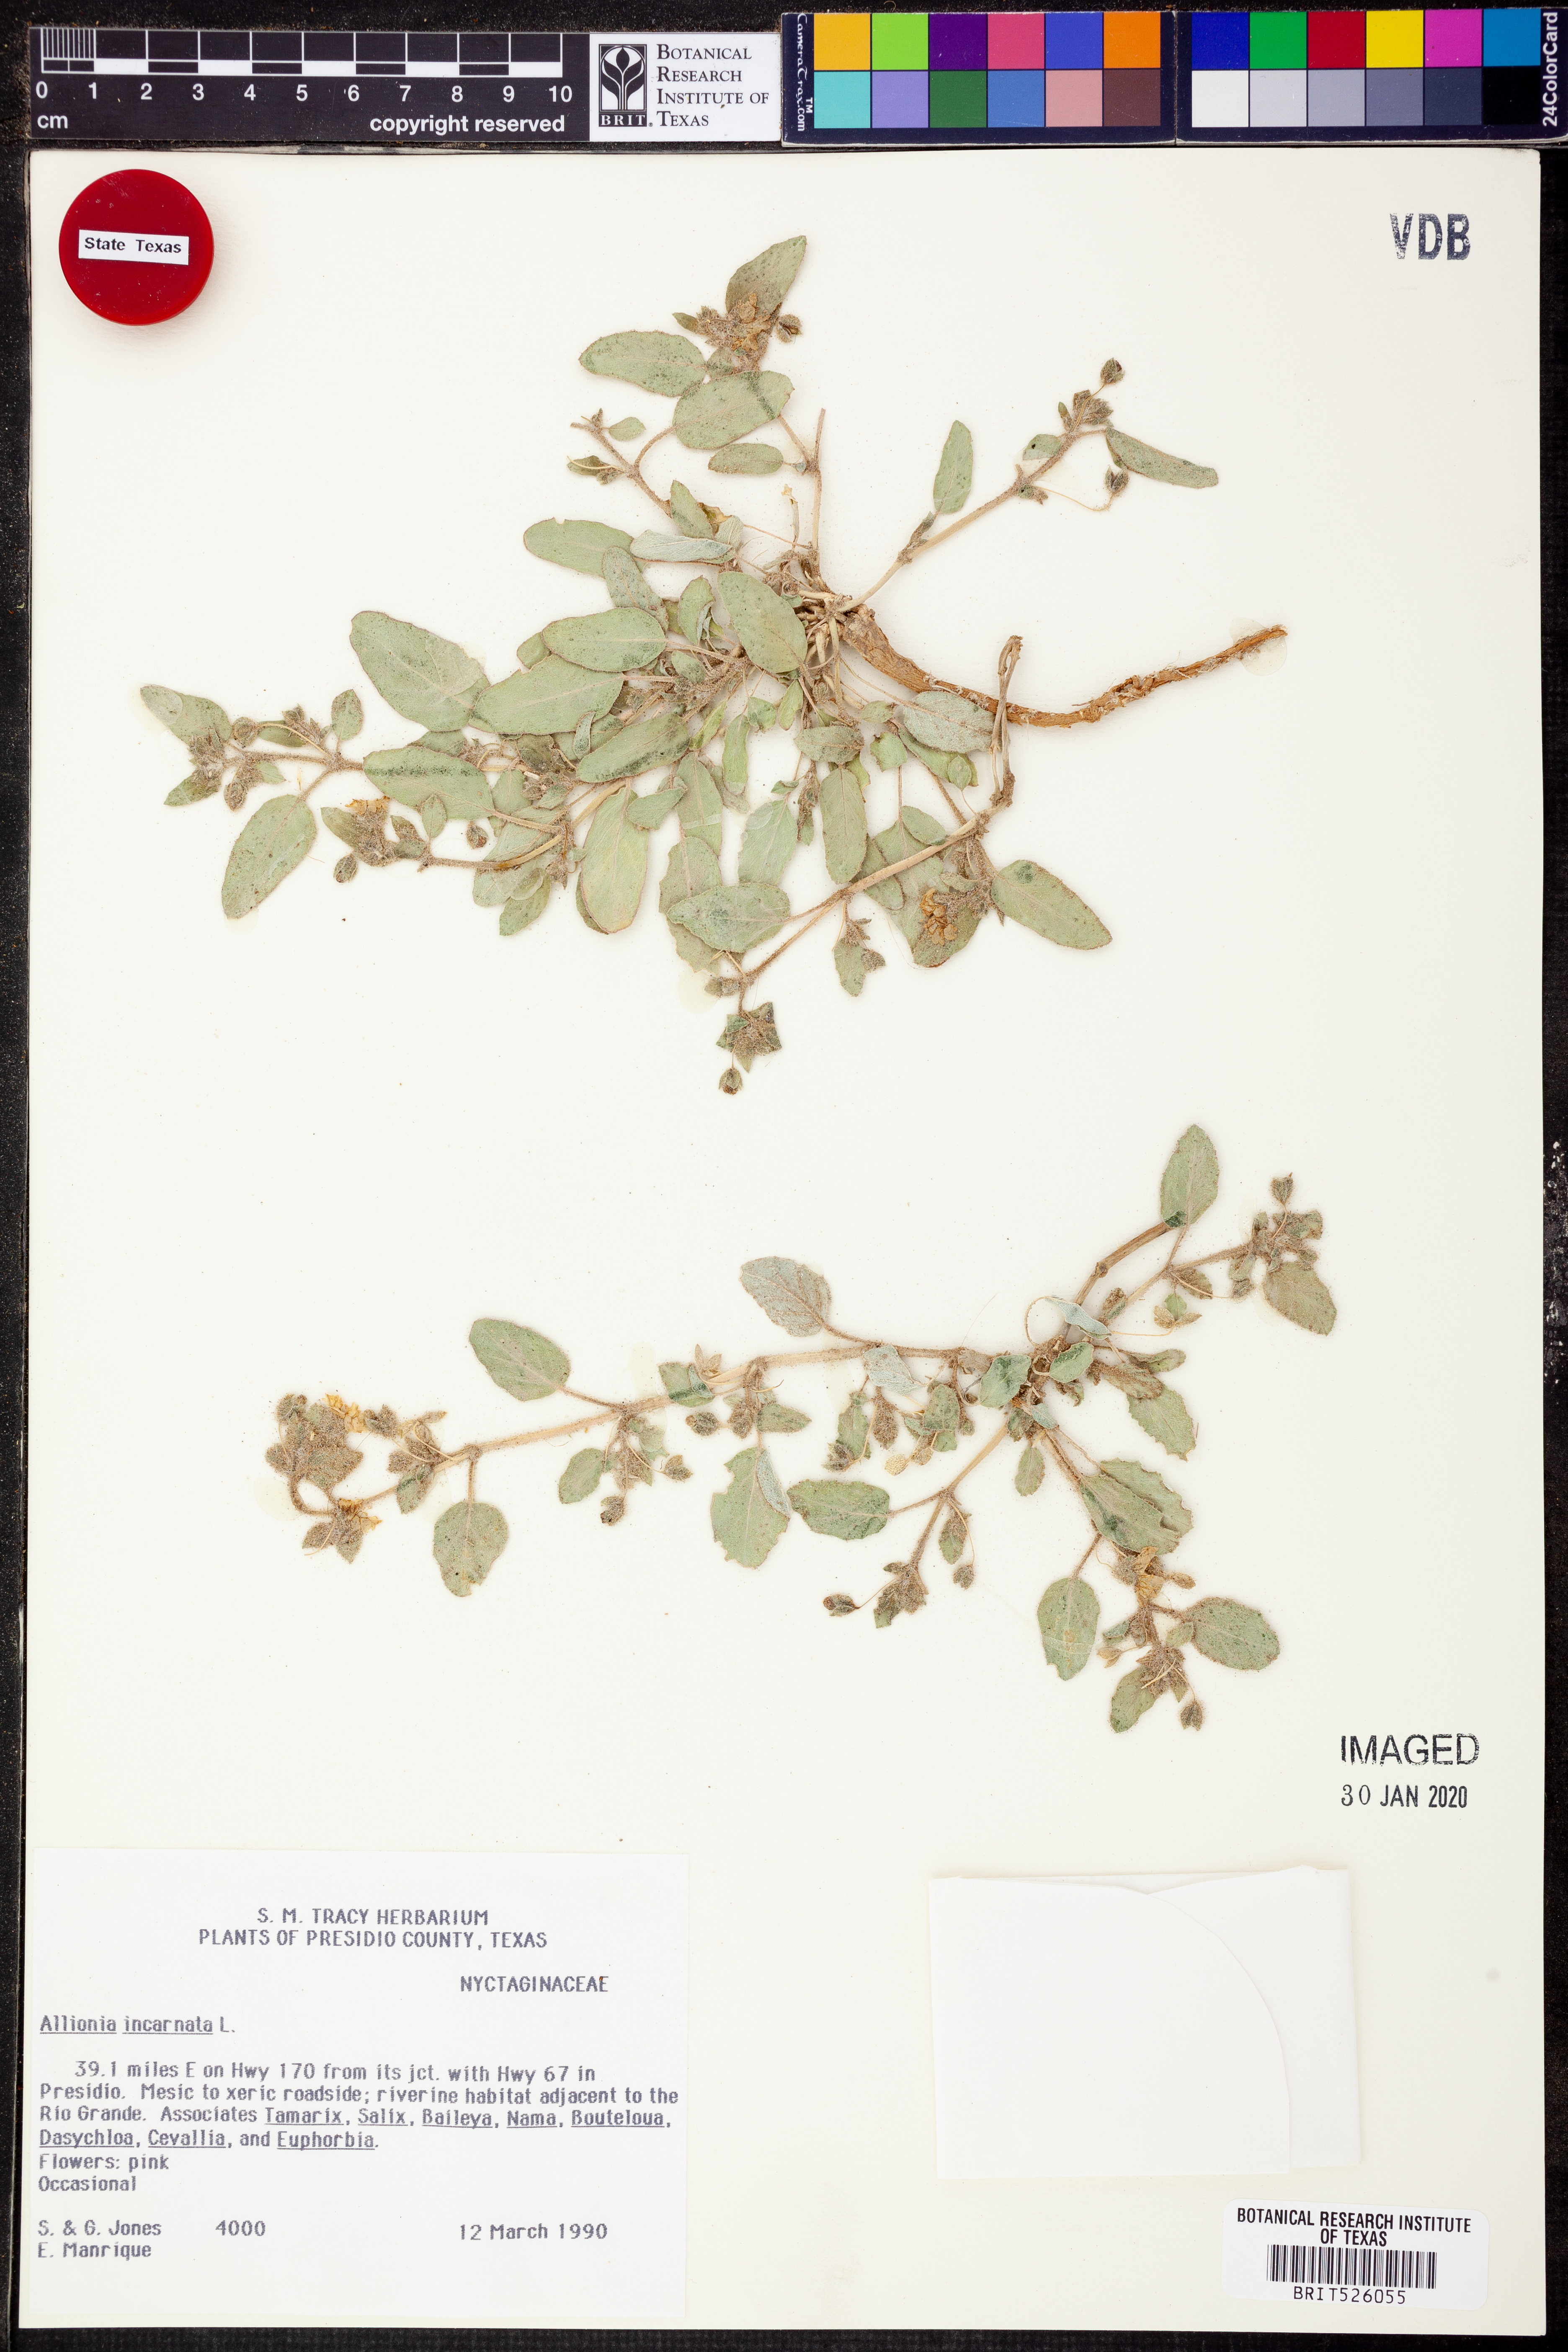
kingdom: Plantae
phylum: Tracheophyta
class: Magnoliopsida
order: Caryophyllales
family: Nyctaginaceae
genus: Allionia
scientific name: Allionia incarnata
